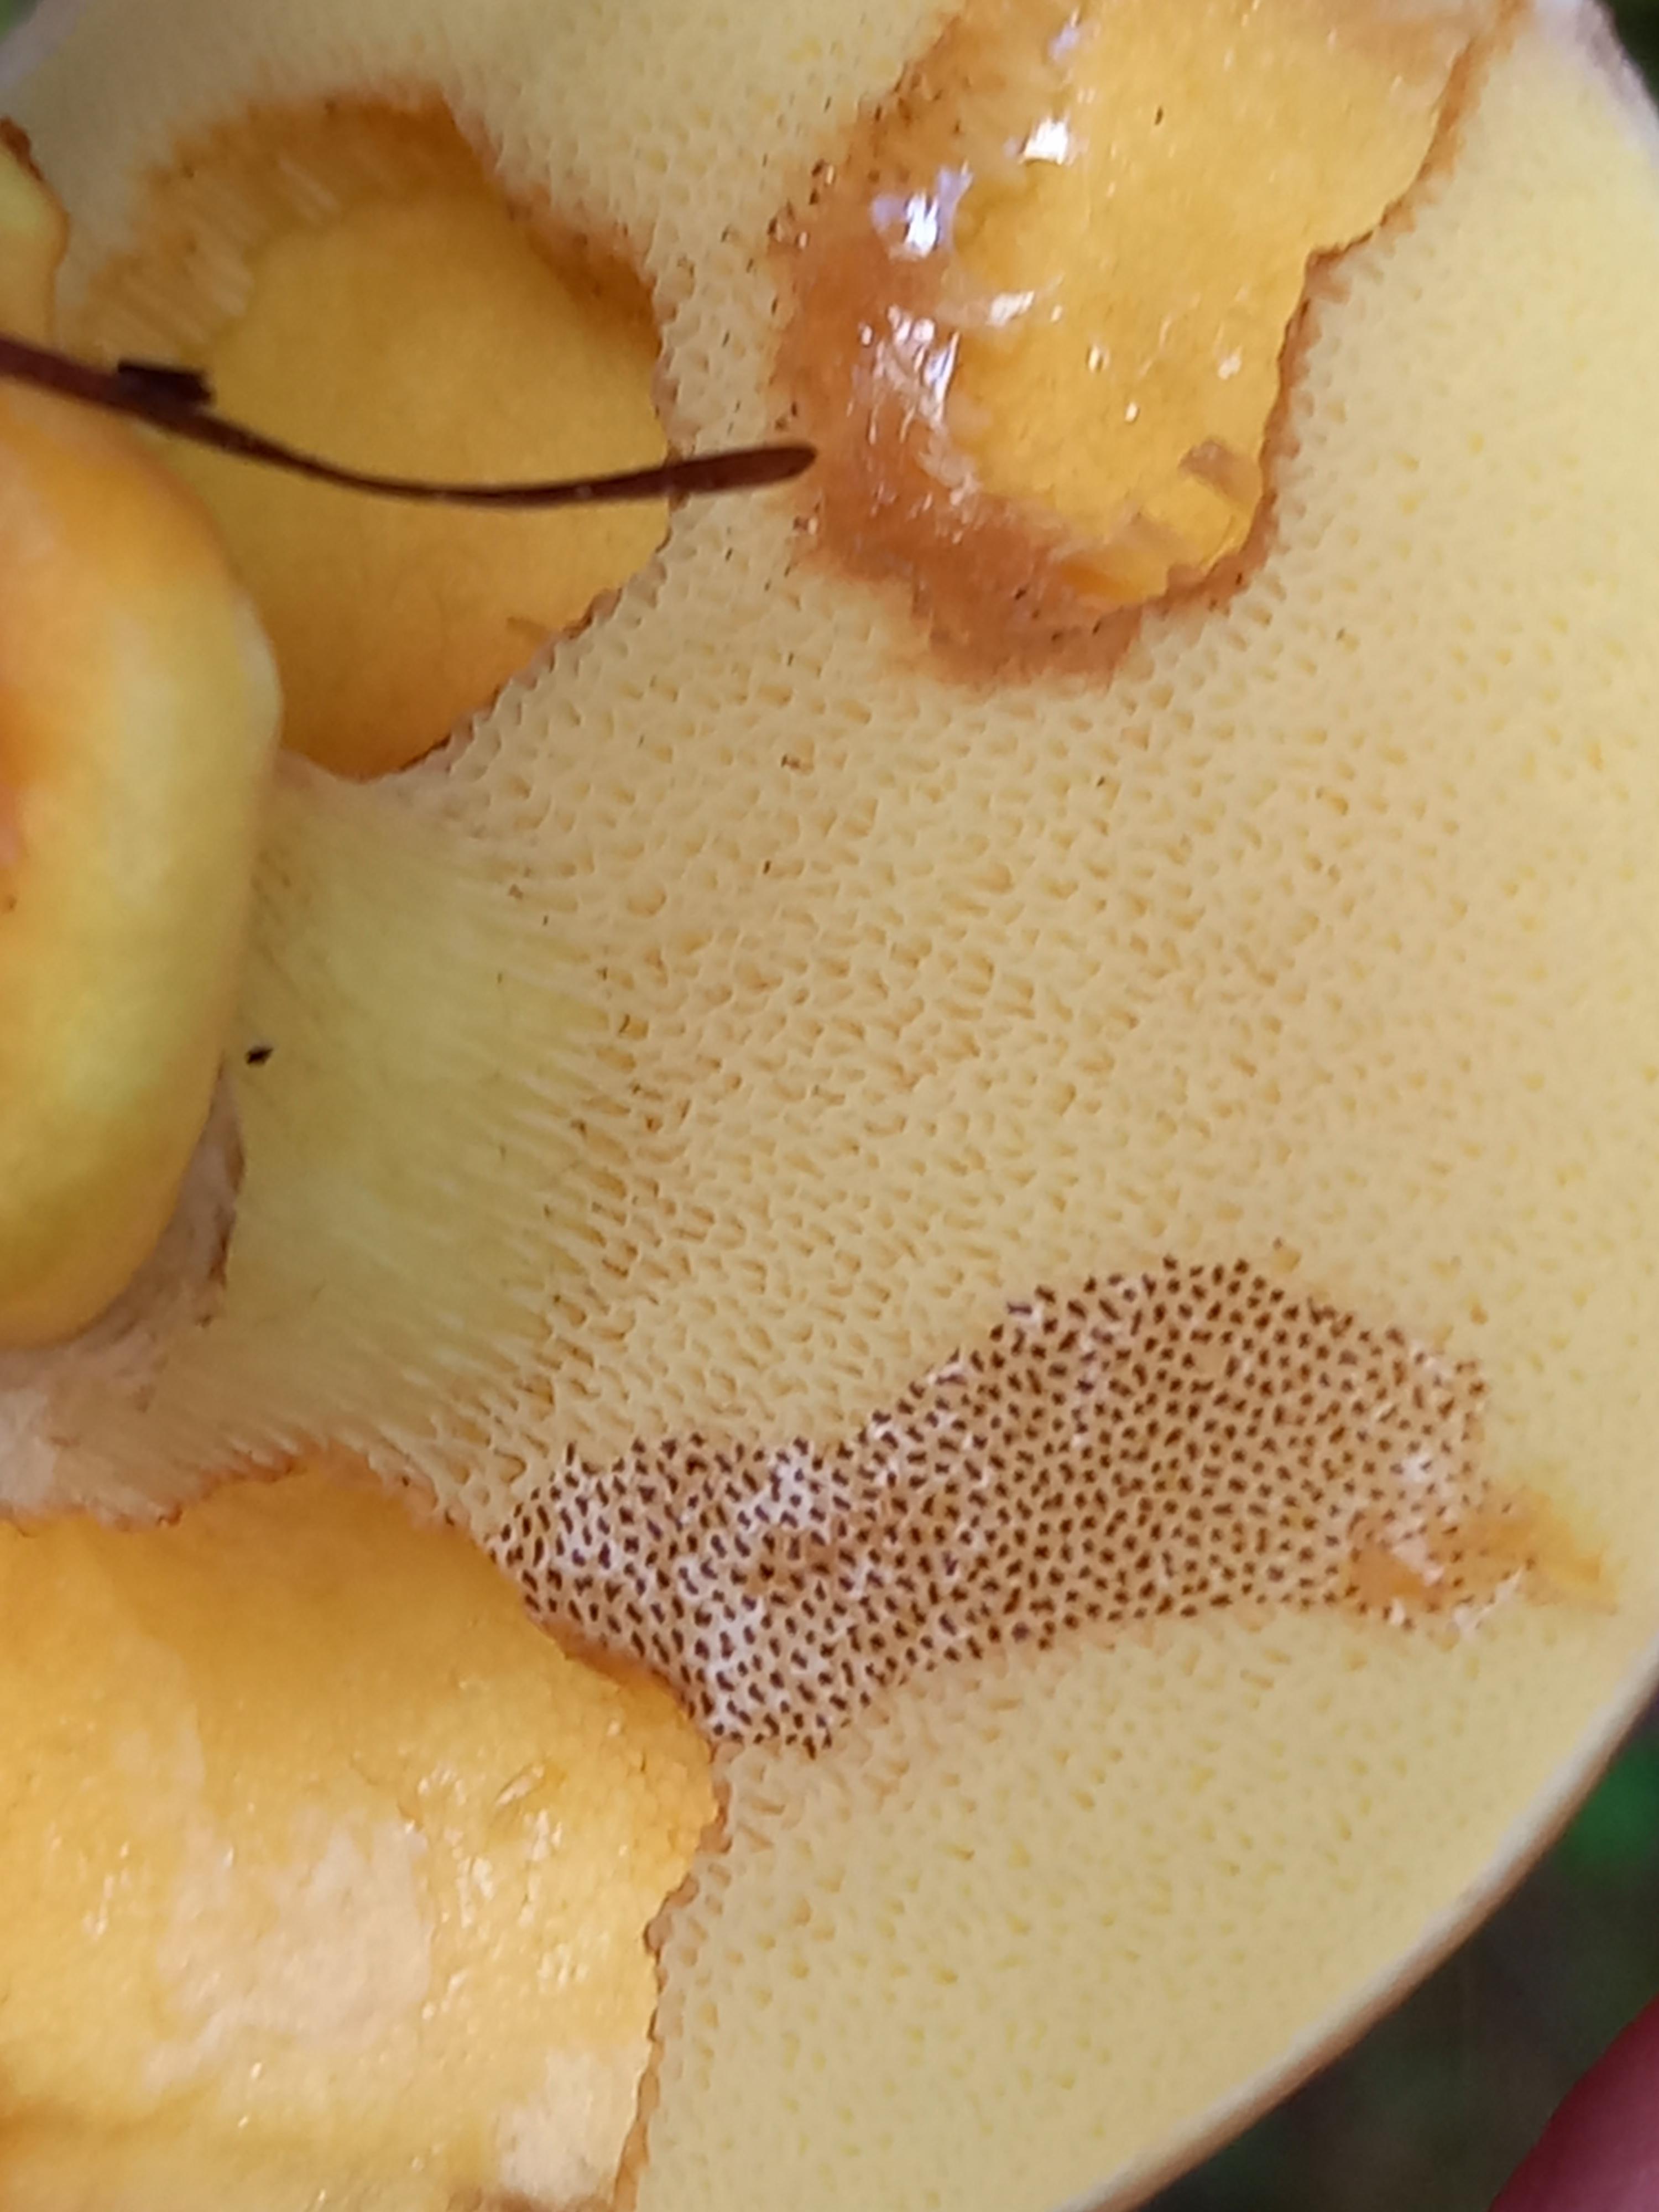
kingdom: Fungi
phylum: Basidiomycota
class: Agaricomycetes
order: Boletales
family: Suillaceae
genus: Suillus
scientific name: Suillus grevillei
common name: lærke-slimrørhat
